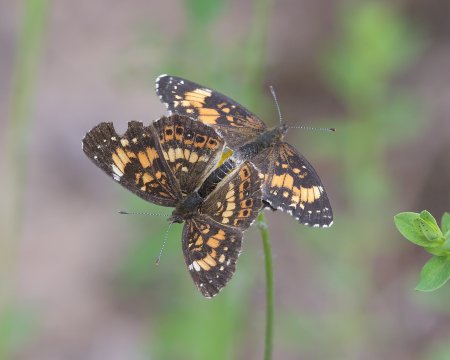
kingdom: Animalia
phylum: Arthropoda
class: Insecta
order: Lepidoptera
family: Nymphalidae
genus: Chlosyne
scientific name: Chlosyne nycteis
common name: Silvery Checkerspot
